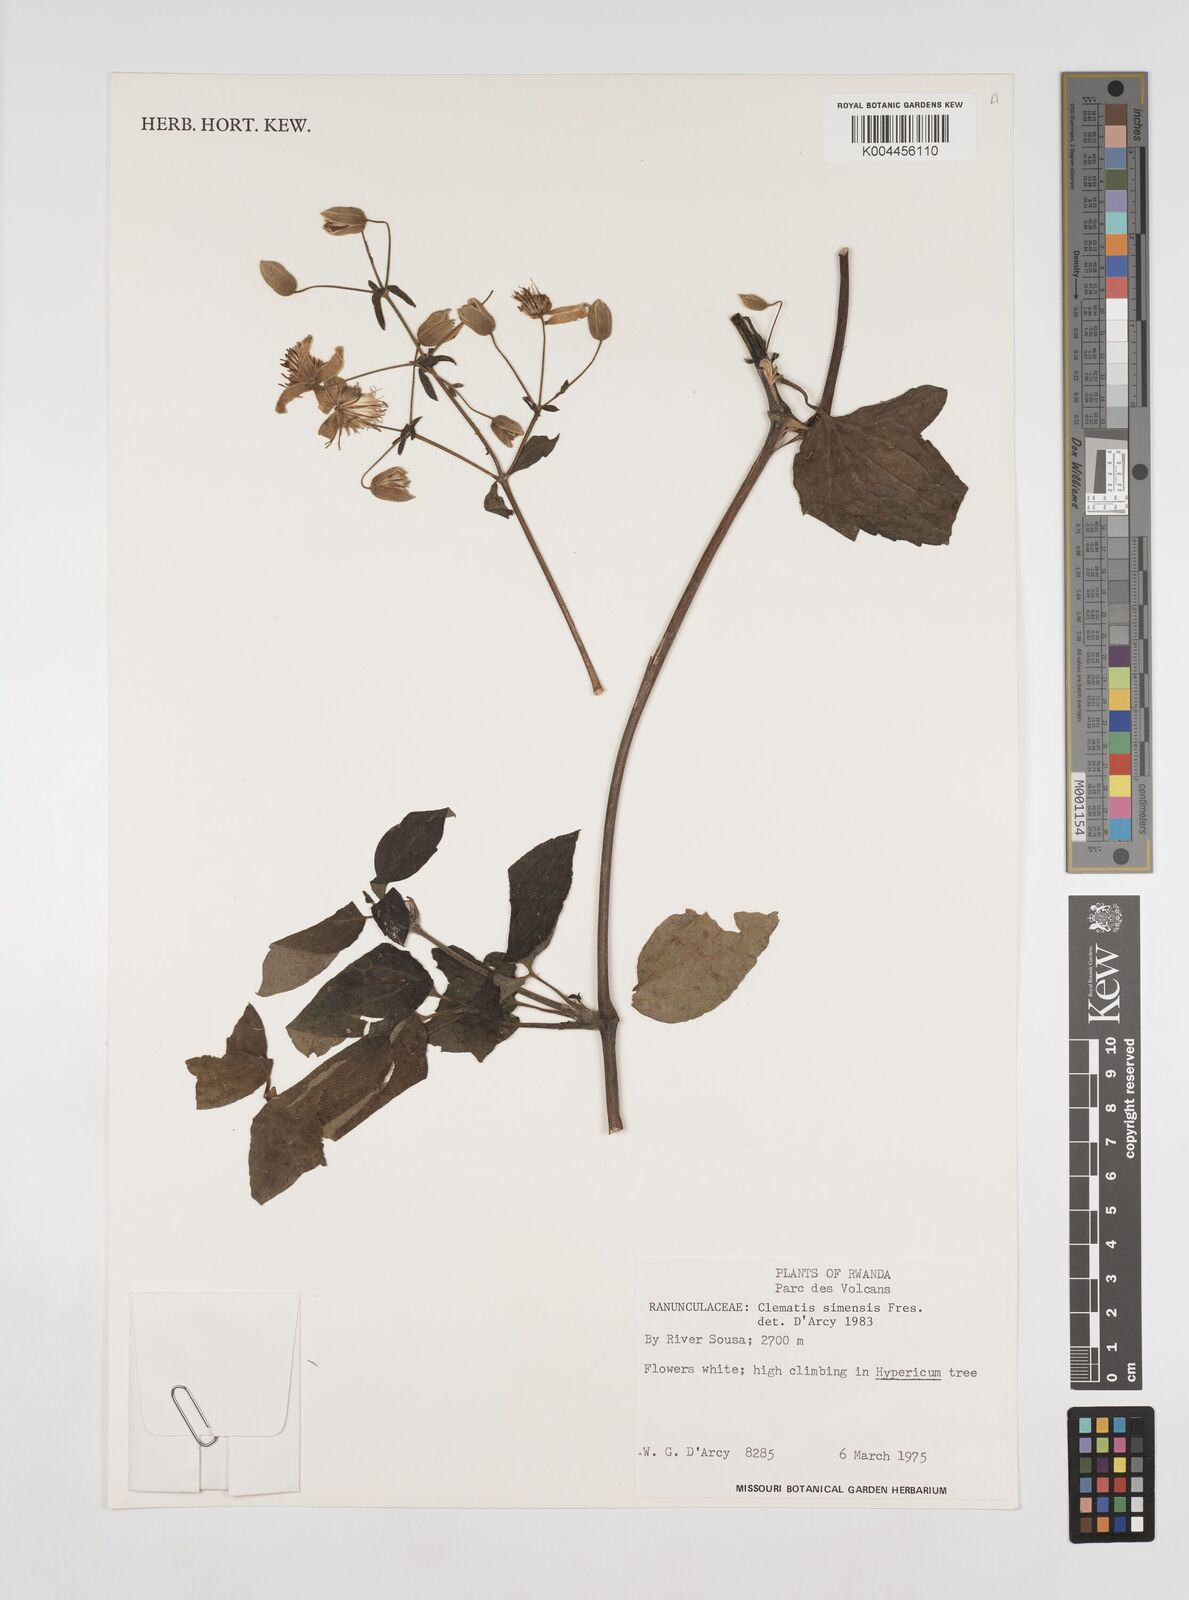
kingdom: Plantae
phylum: Tracheophyta
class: Magnoliopsida
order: Ranunculales
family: Ranunculaceae
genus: Clematis
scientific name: Clematis simensis
